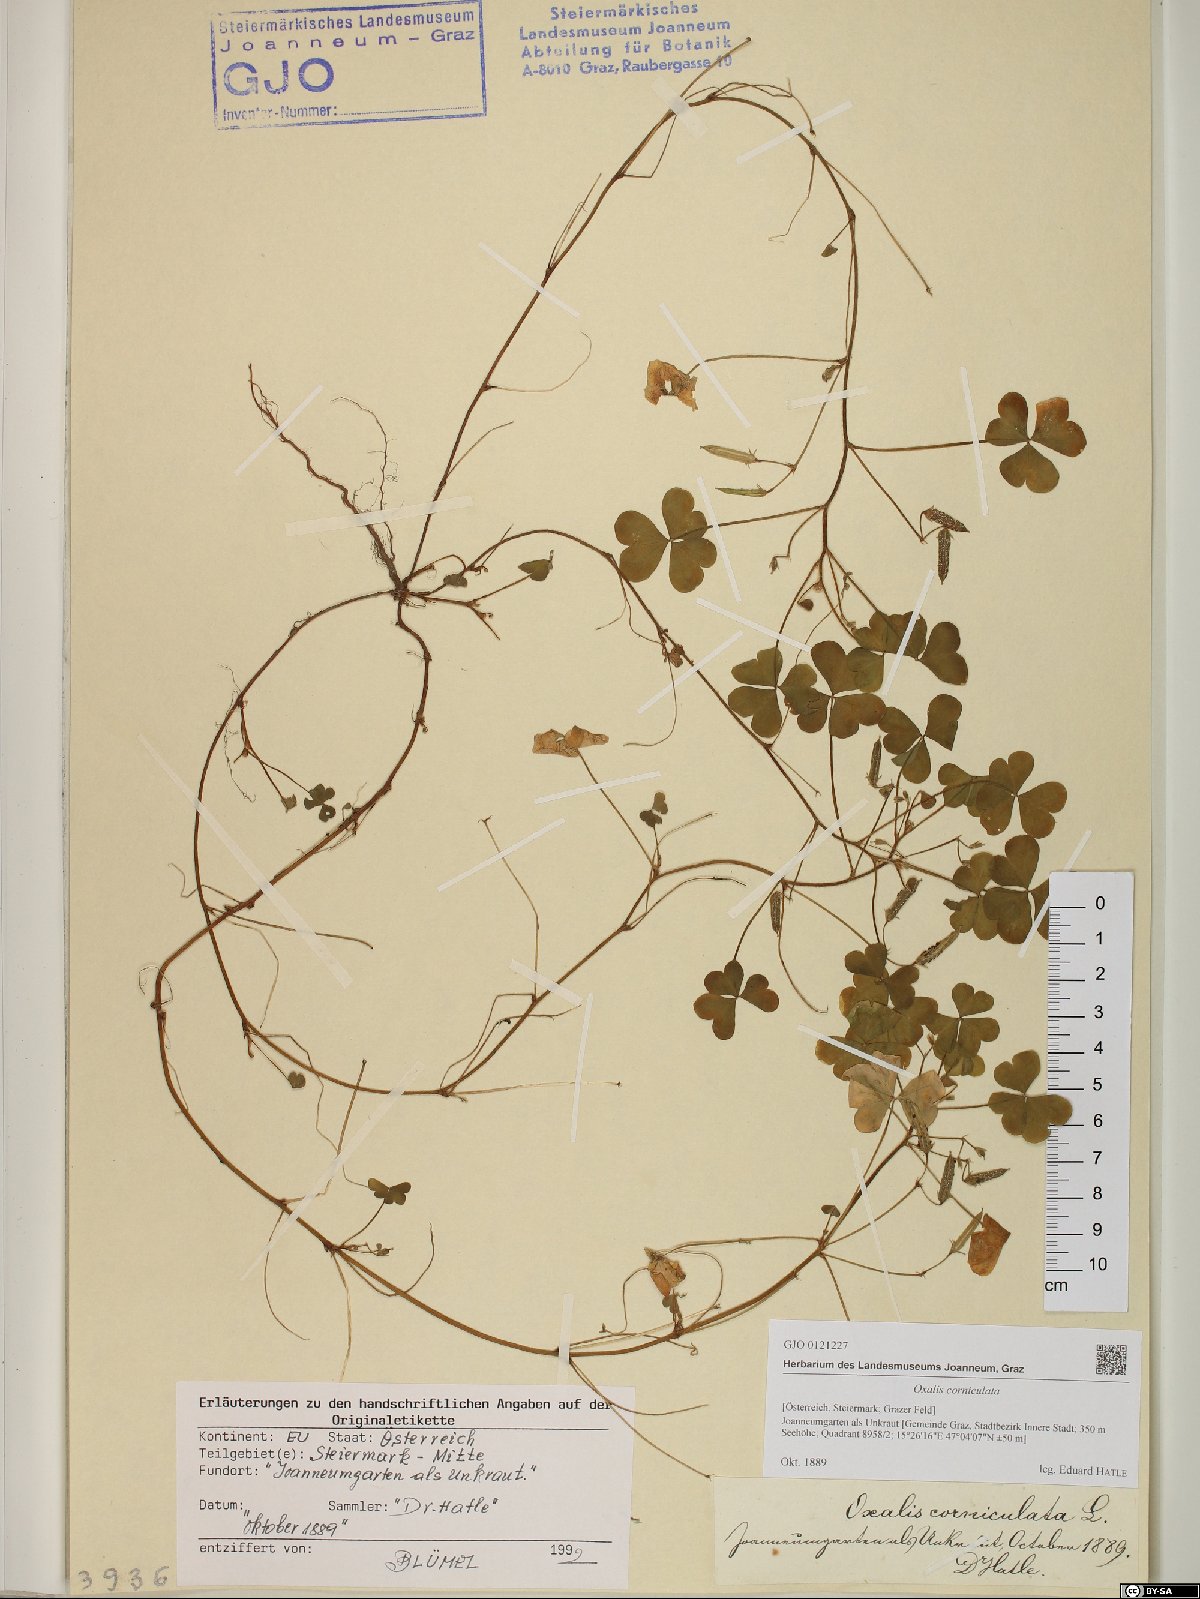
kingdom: Plantae
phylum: Tracheophyta
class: Magnoliopsida
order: Oxalidales
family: Oxalidaceae
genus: Oxalis
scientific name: Oxalis corniculata
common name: Procumbent yellow-sorrel
